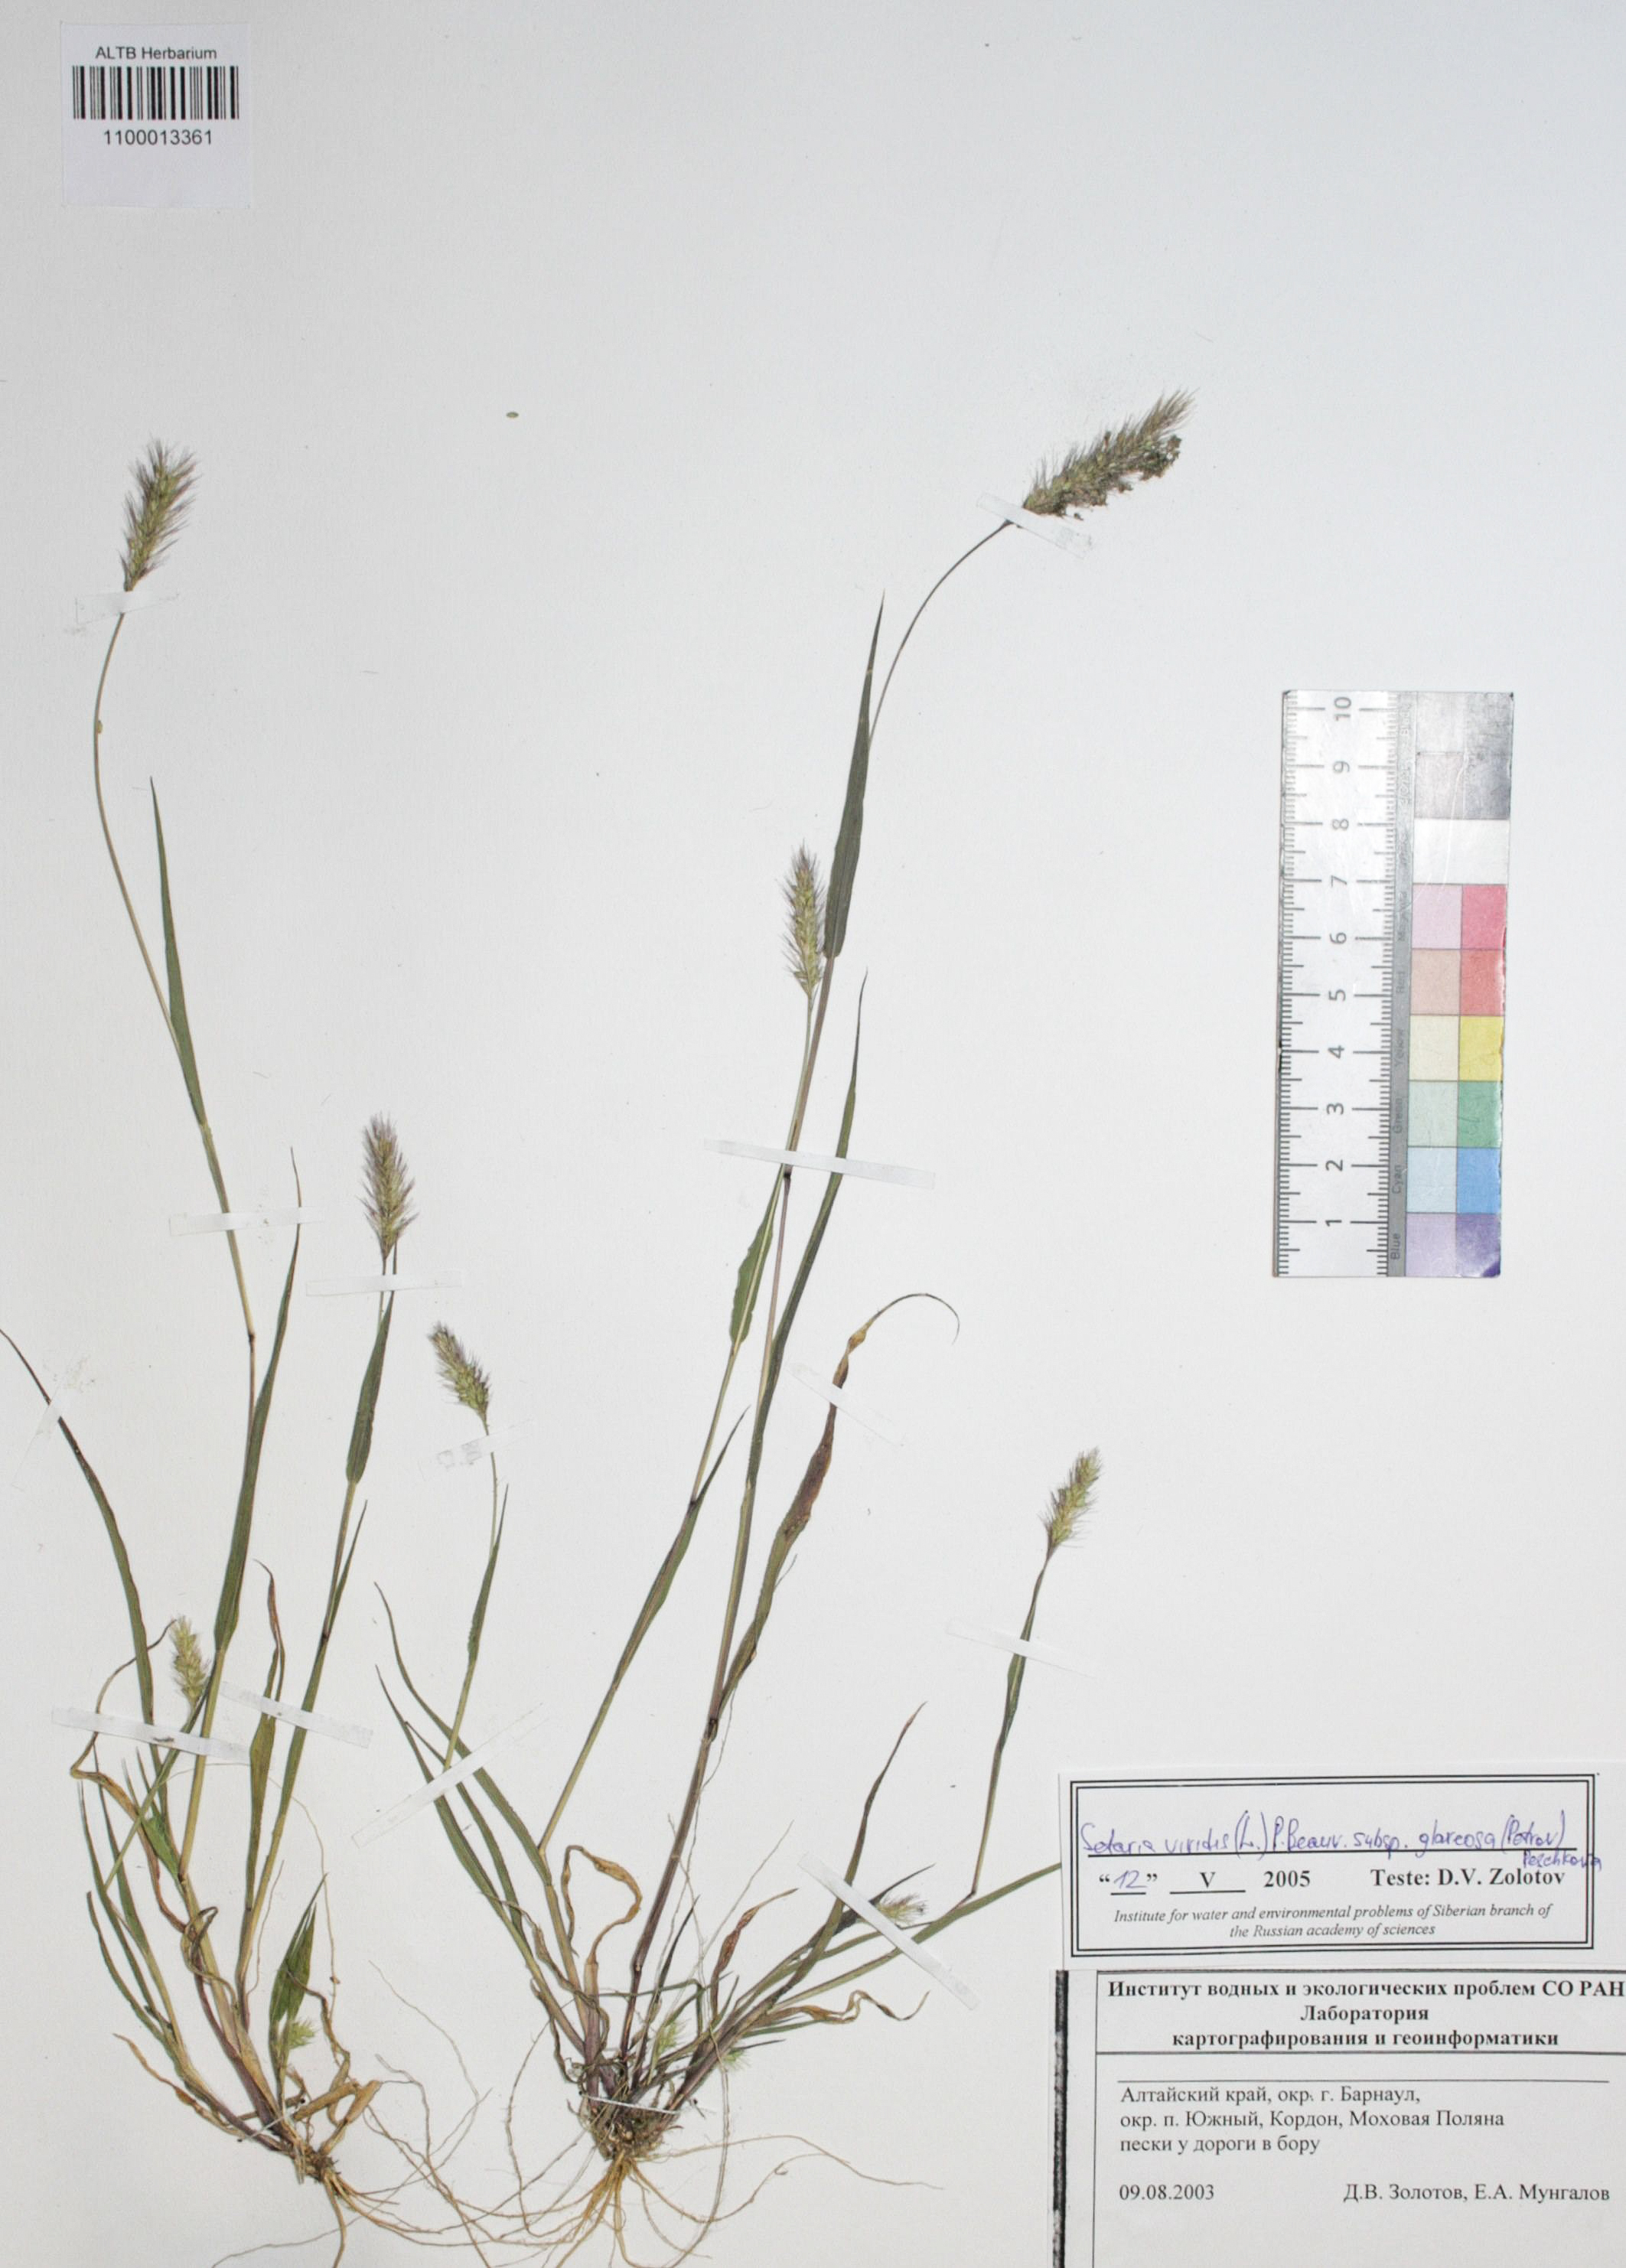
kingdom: Plantae
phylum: Tracheophyta
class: Liliopsida
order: Poales
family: Poaceae
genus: Setaria
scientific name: Setaria viridis
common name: Green bristlegrass
